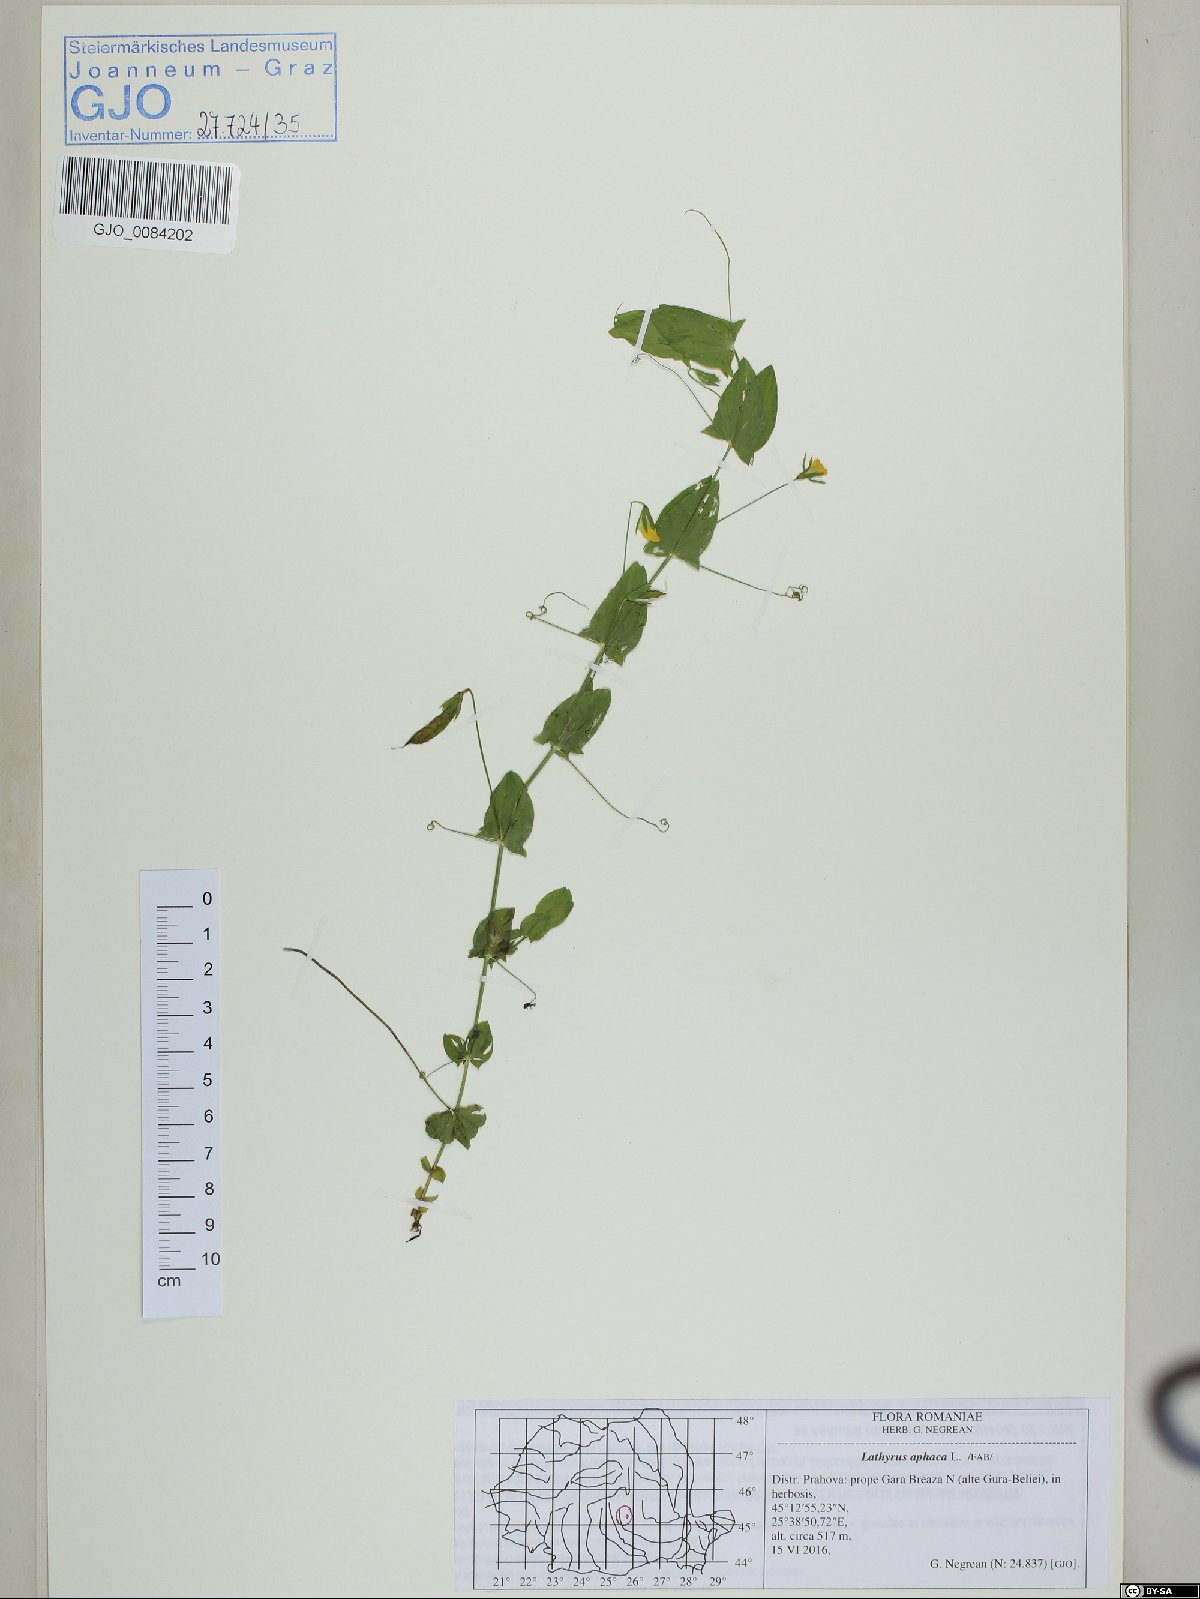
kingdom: Plantae
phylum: Tracheophyta
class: Magnoliopsida
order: Fabales
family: Fabaceae
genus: Lathyrus
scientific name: Lathyrus aphaca
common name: Yellow vetchling
